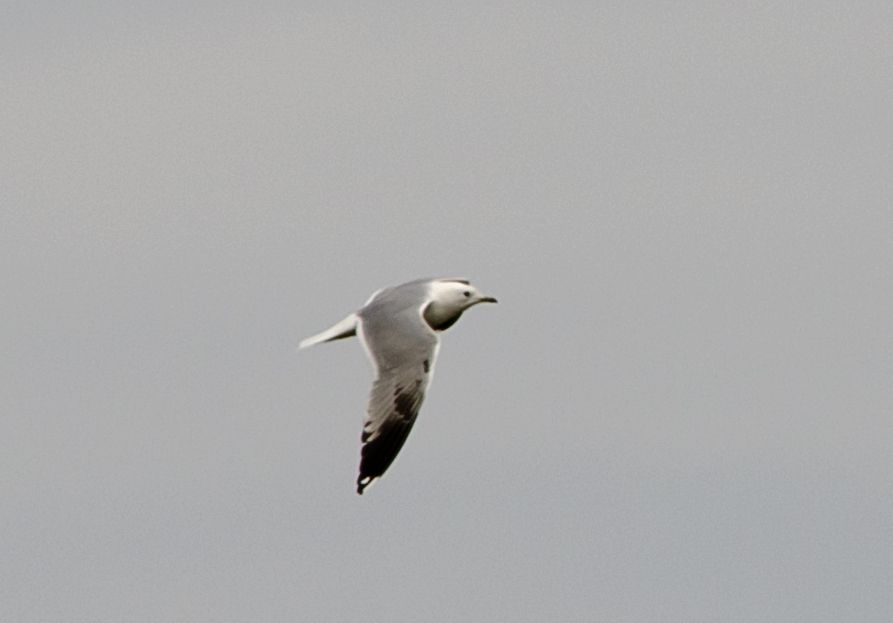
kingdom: Animalia
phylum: Chordata
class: Aves
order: Charadriiformes
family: Laridae
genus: Larus
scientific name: Larus canus
